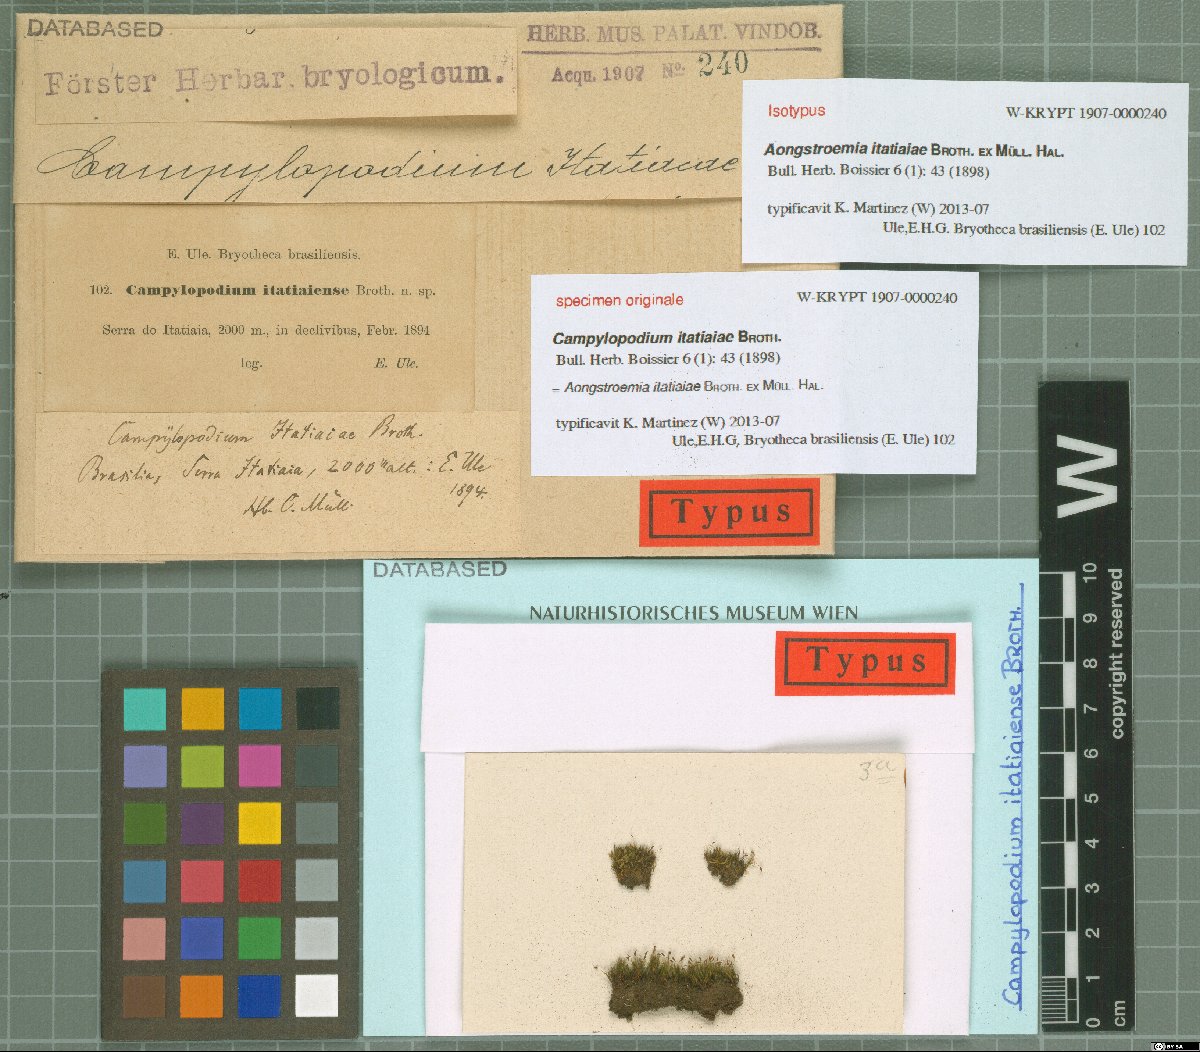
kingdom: Plantae
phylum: Bryophyta
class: Bryopsida
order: Dicranales
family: Dicranaceae
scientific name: Dicranaceae
